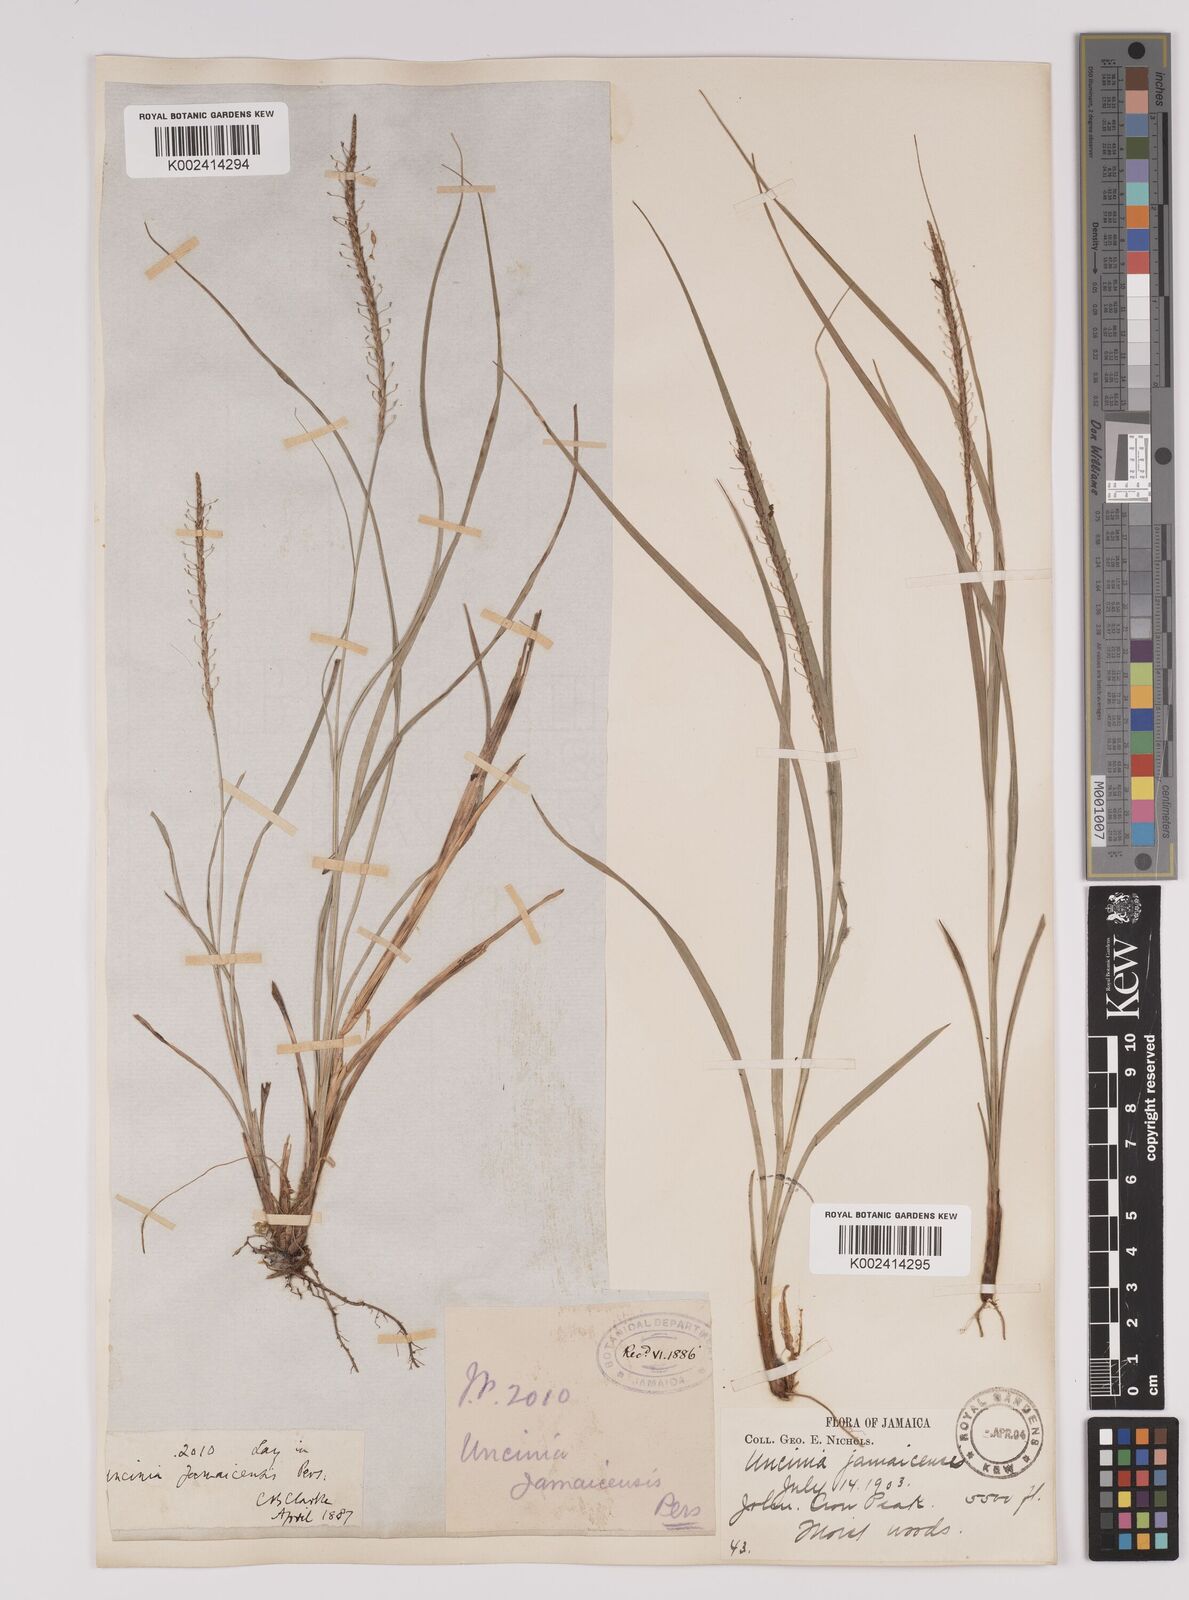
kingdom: Plantae
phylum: Tracheophyta
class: Liliopsida
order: Poales
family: Cyperaceae
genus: Carex
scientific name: Carex hamata
